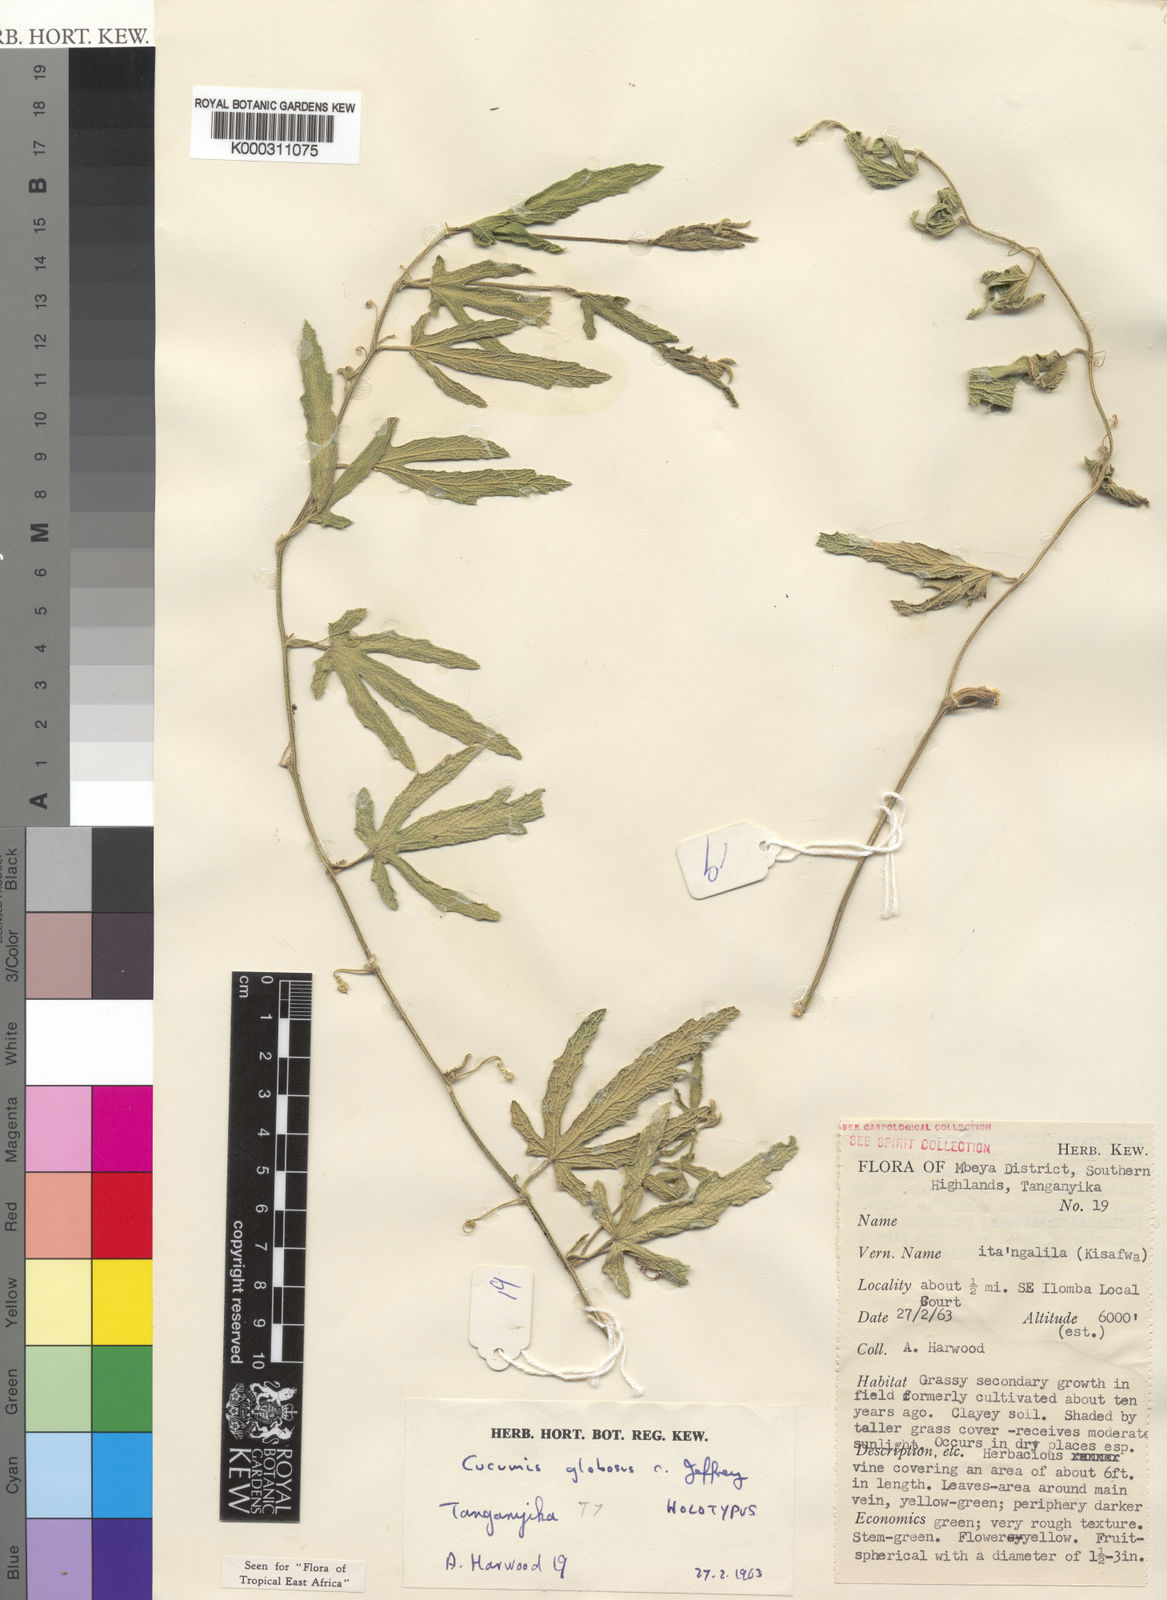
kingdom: Plantae
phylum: Tracheophyta
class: Magnoliopsida
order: Cucurbitales
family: Cucurbitaceae
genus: Cucumis
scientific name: Cucumis globosus
